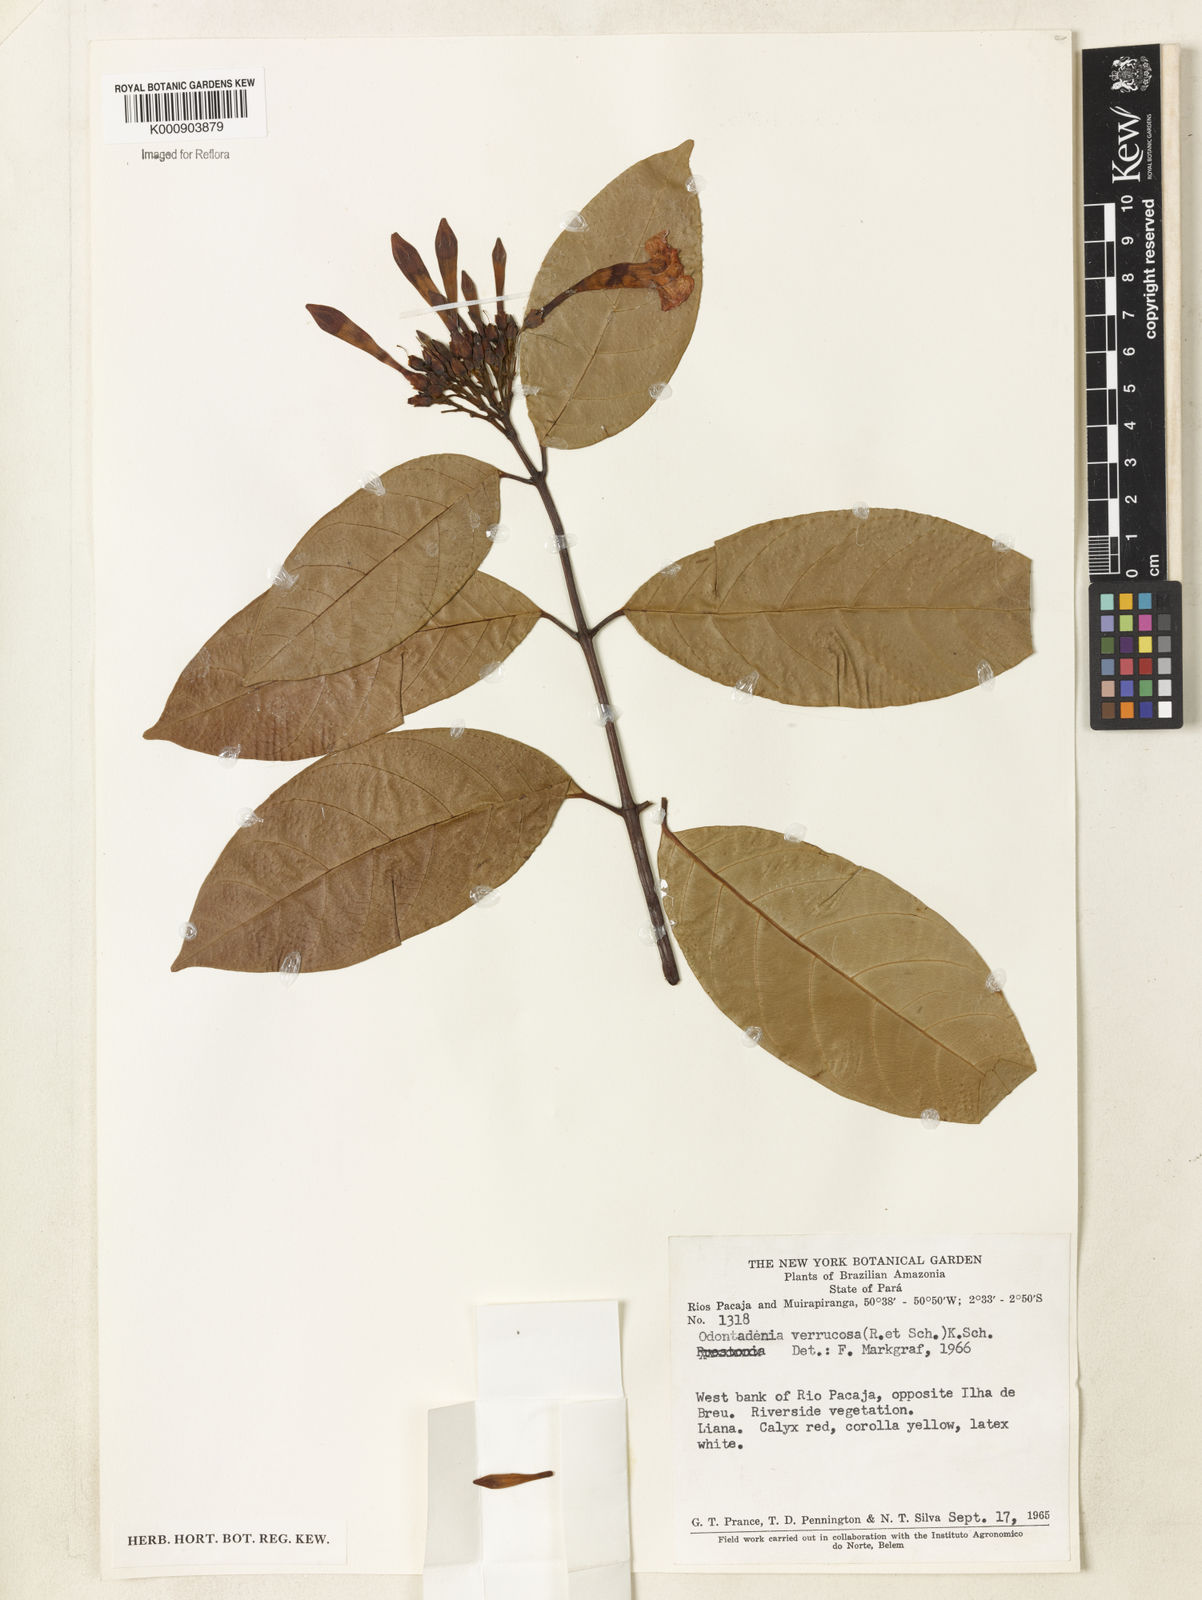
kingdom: Plantae
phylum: Tracheophyta
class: Magnoliopsida
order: Gentianales
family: Apocynaceae
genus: Odontadenia
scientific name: Odontadenia verrucosa
